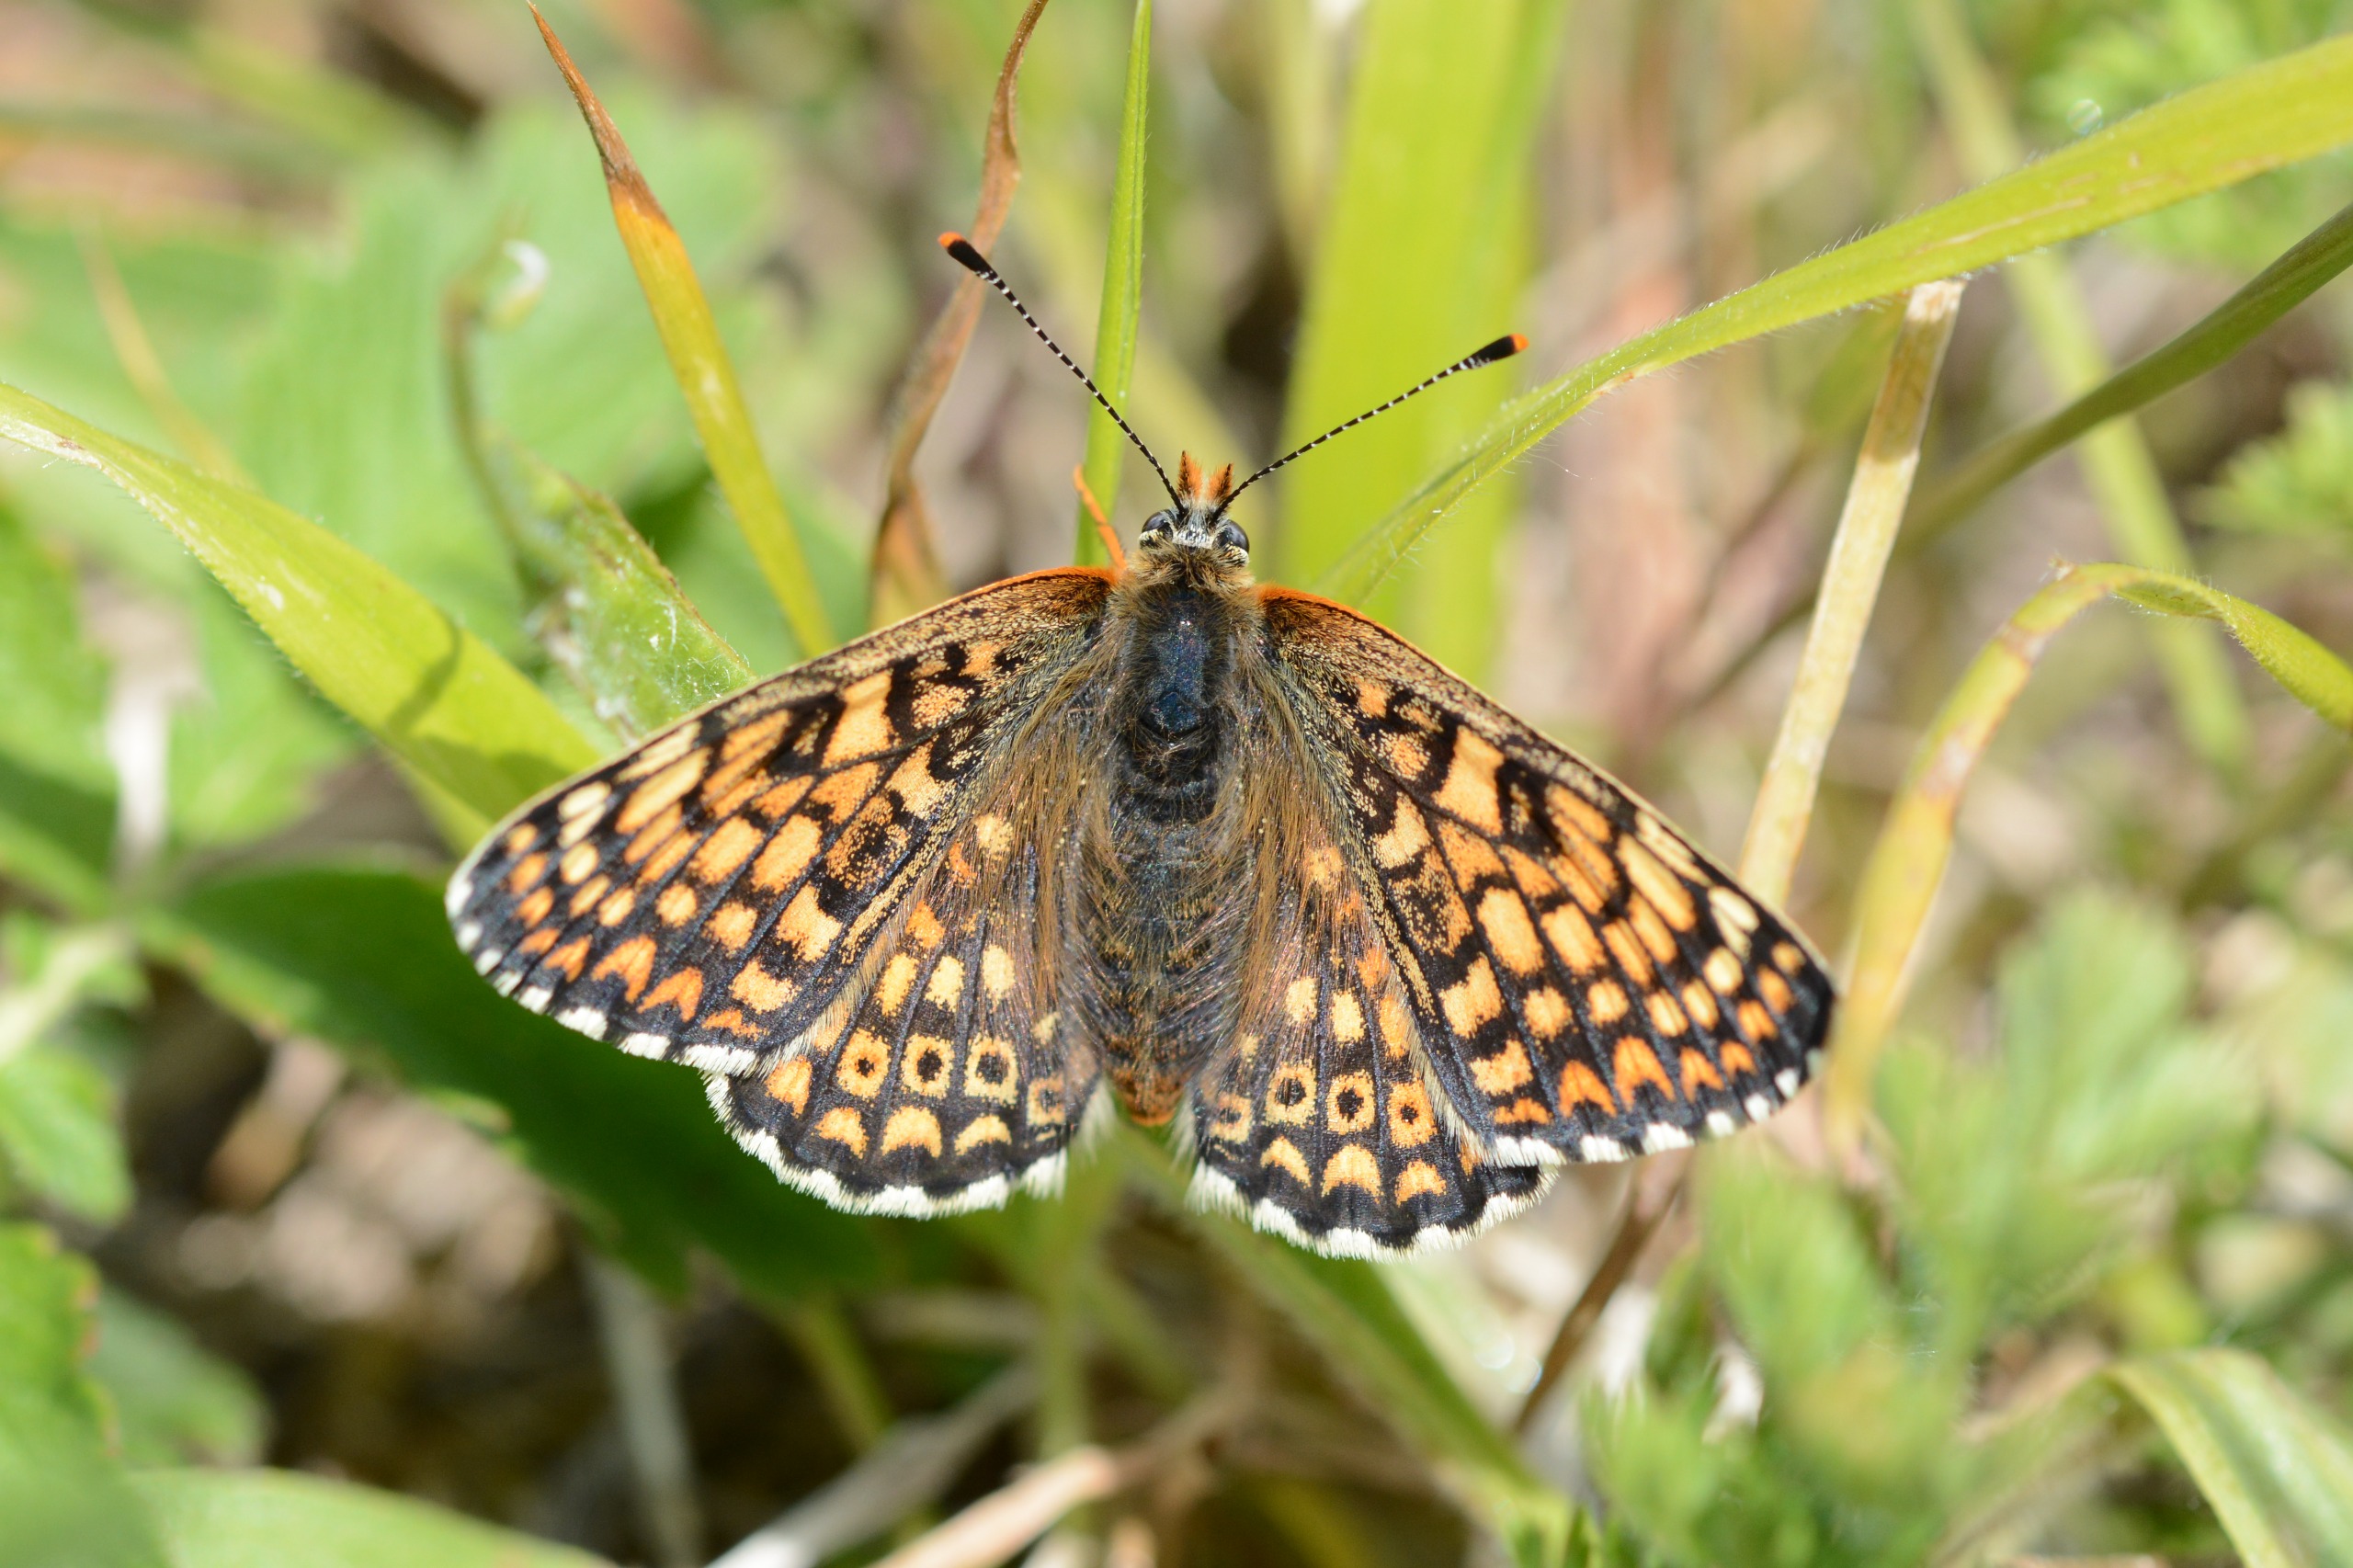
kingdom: Animalia
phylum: Arthropoda
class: Insecta
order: Lepidoptera
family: Nymphalidae
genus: Melitaea
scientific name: Melitaea cinxia
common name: Okkergul pletvinge
